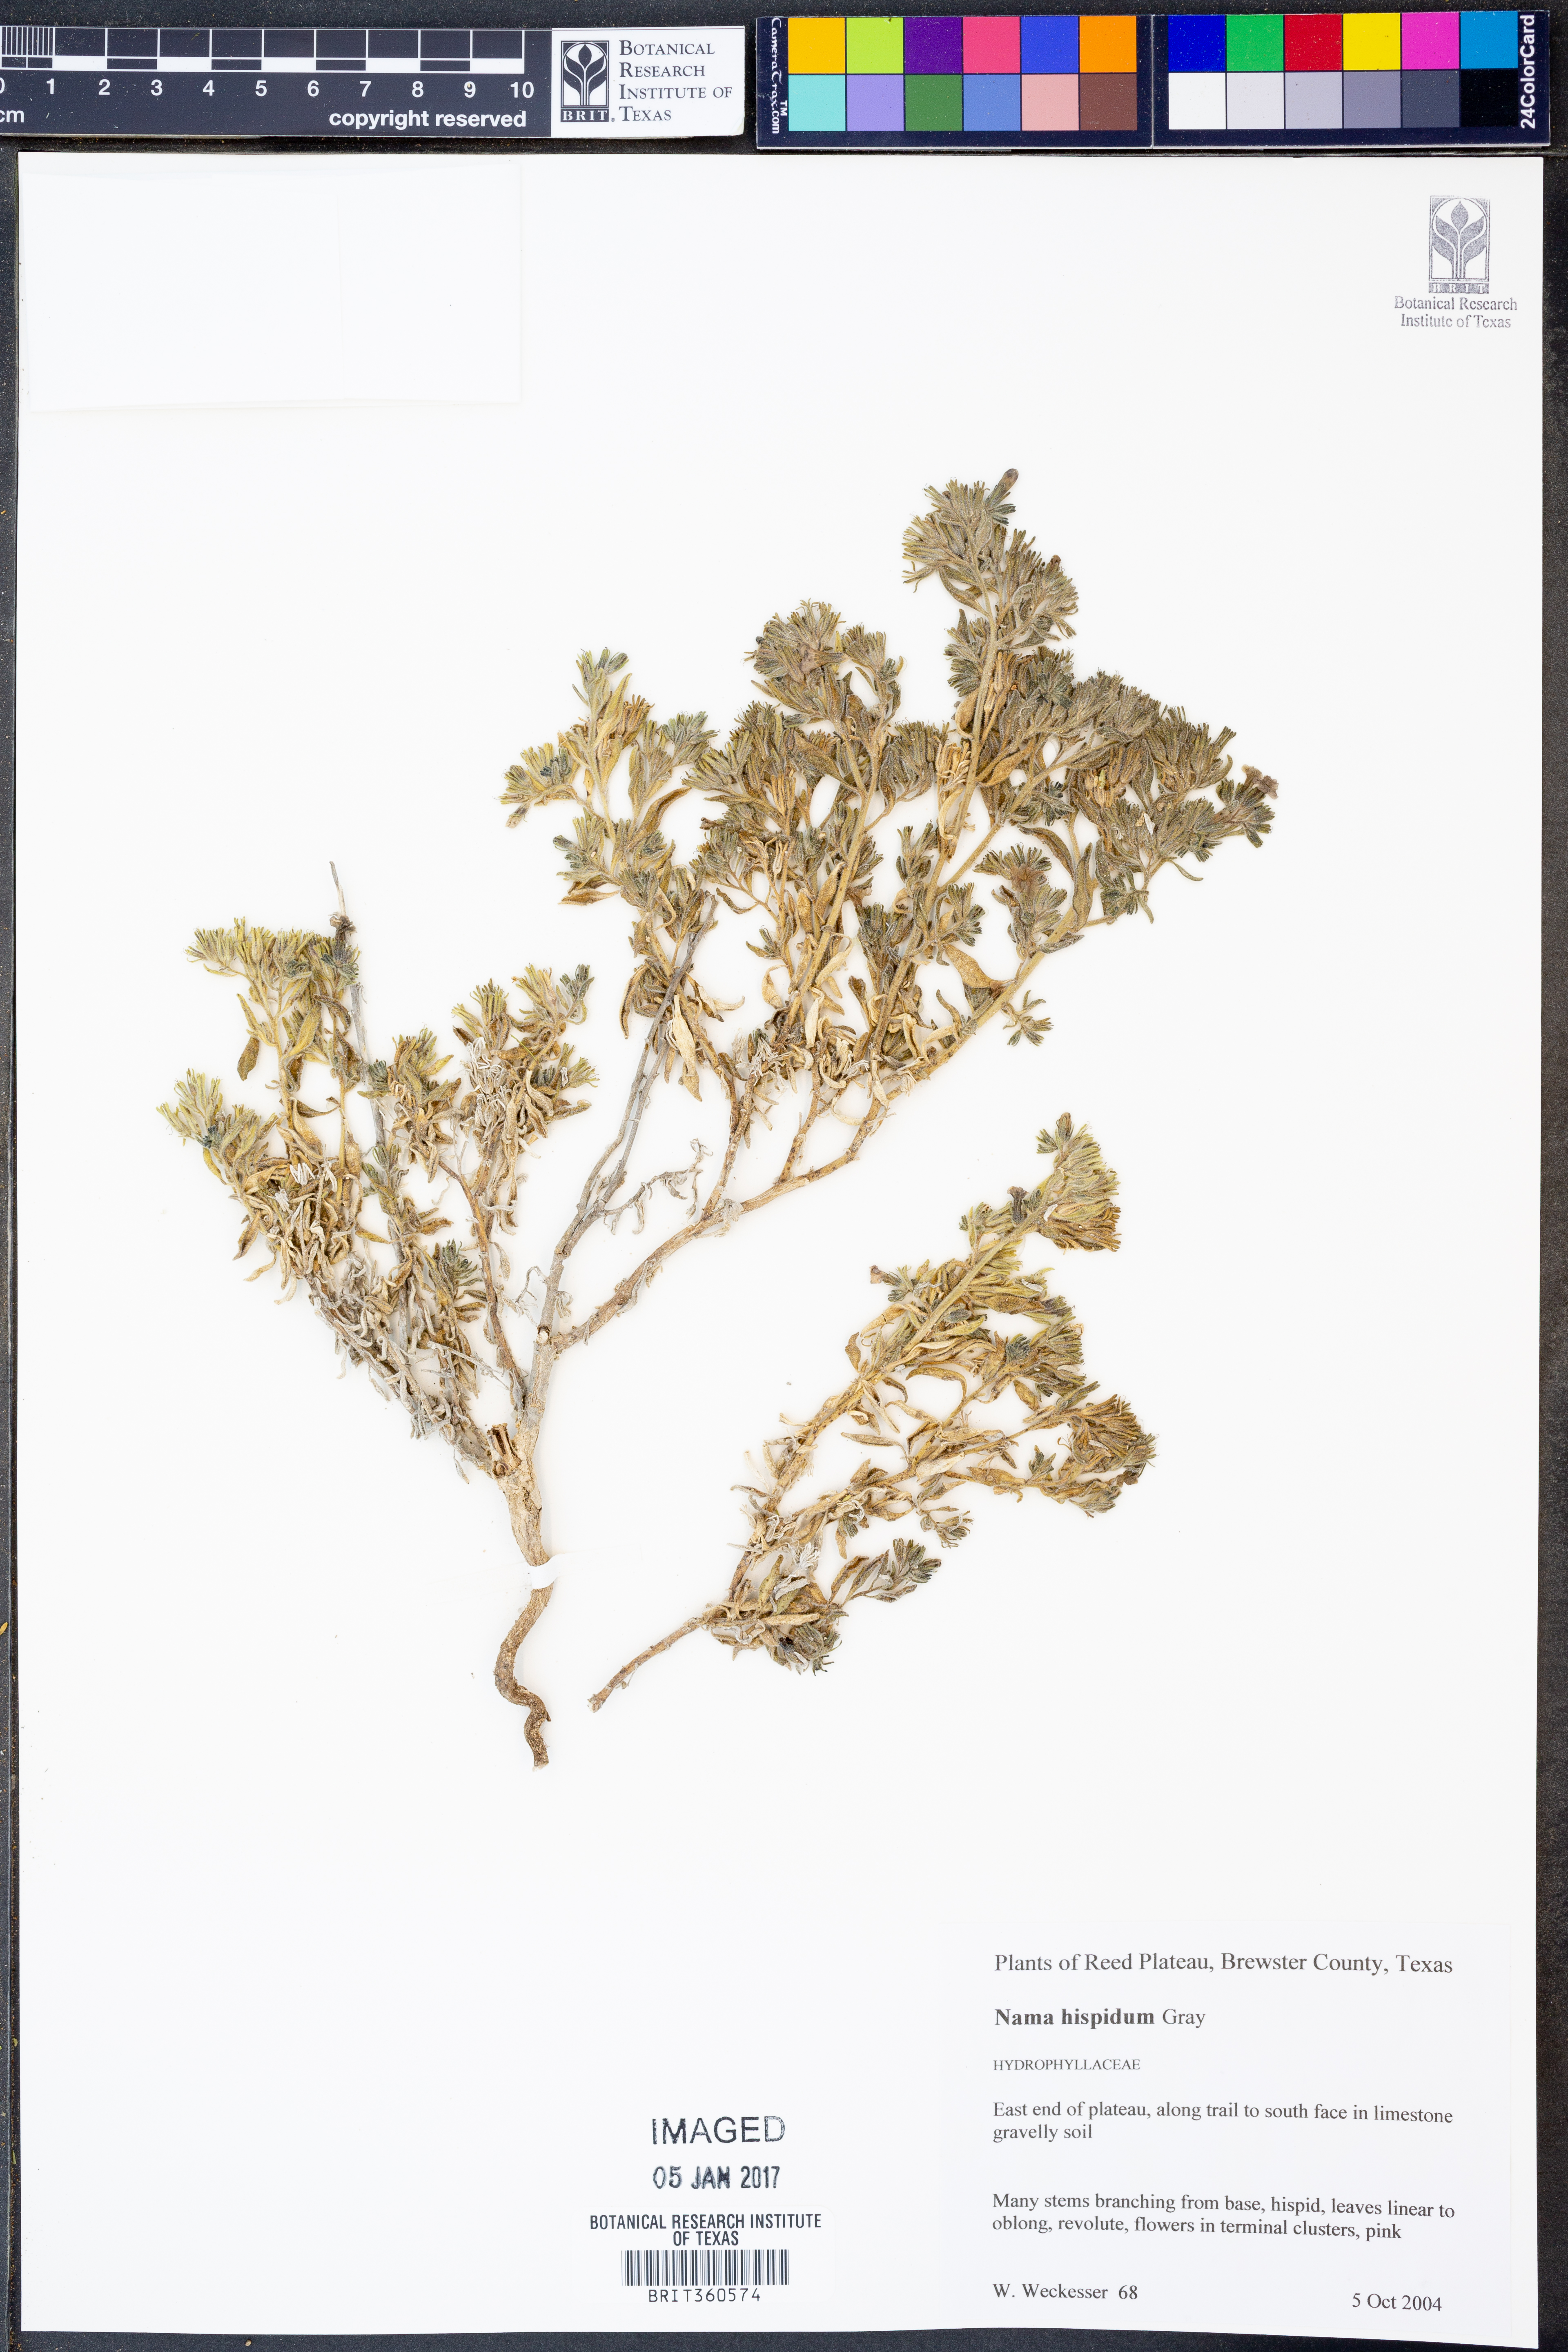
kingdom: Plantae
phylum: Tracheophyta
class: Magnoliopsida
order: Boraginales
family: Namaceae
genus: Nama
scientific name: Nama hispida
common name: Bristly nama
